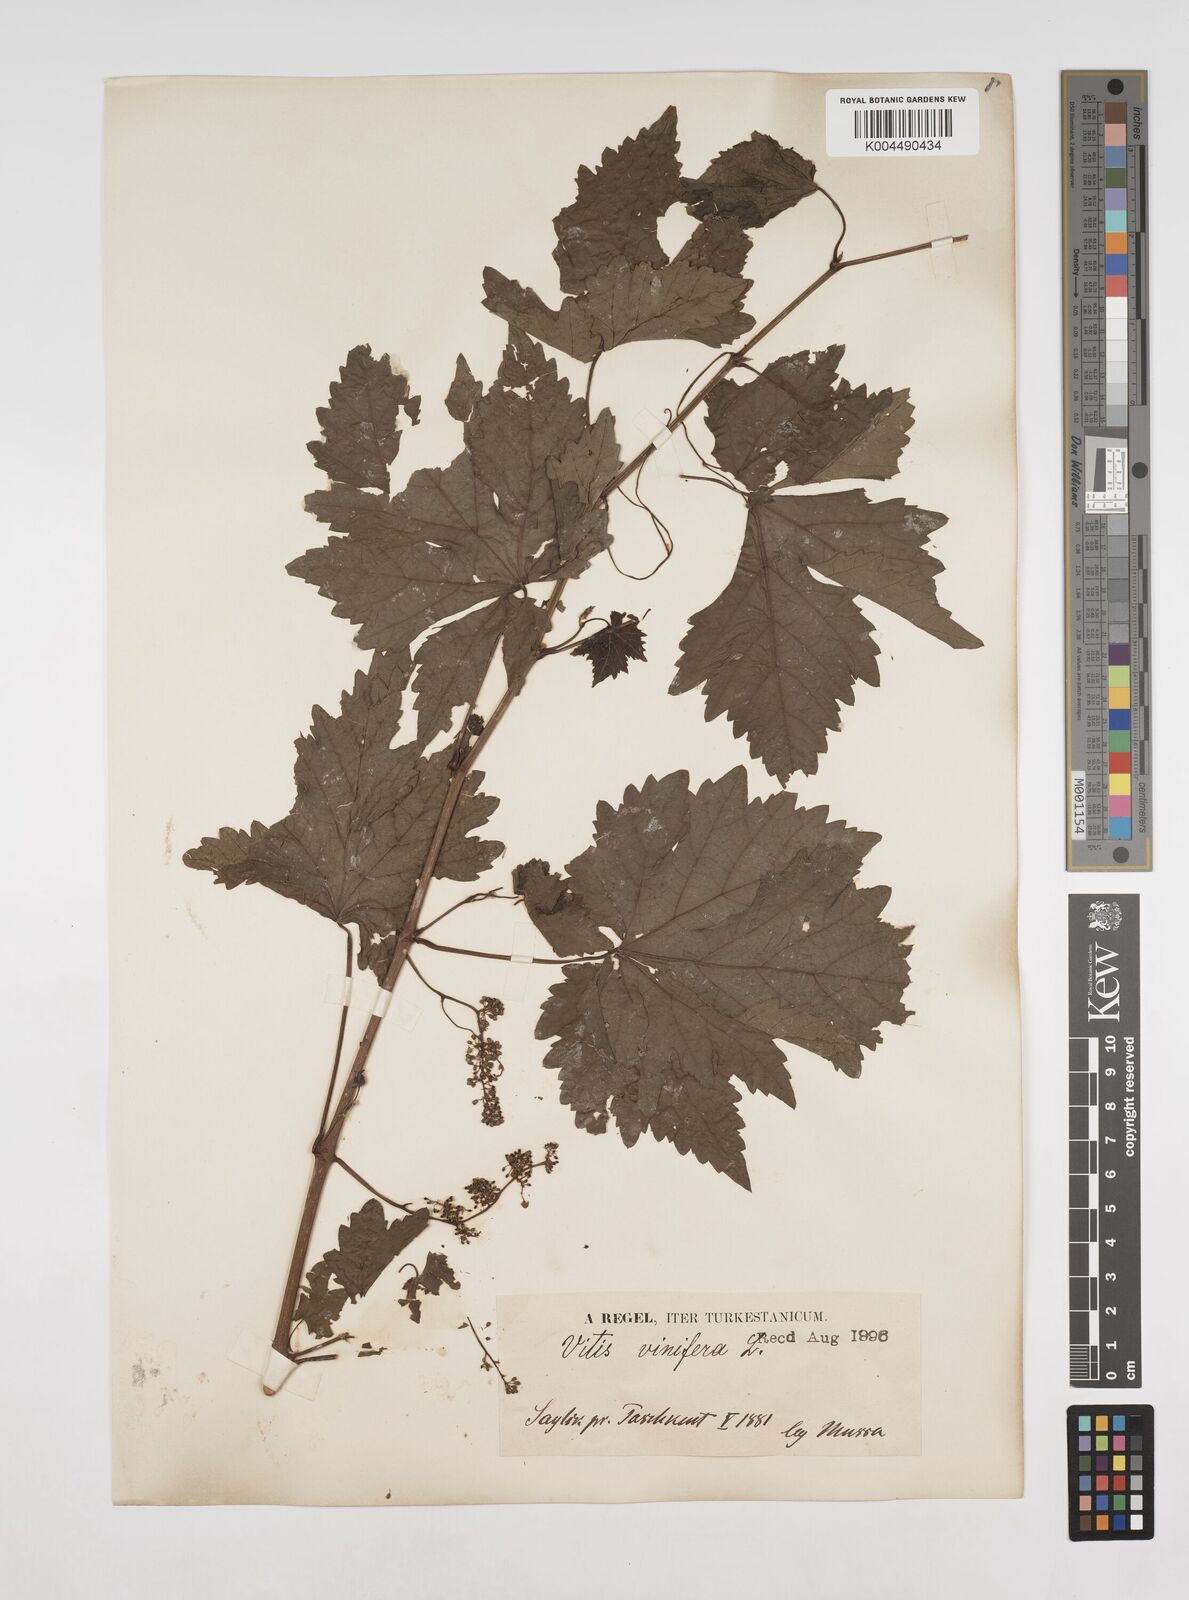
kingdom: Plantae
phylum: Tracheophyta
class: Magnoliopsida
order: Vitales
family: Vitaceae
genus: Vitis
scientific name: Vitis vinifera
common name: Grape-vine
